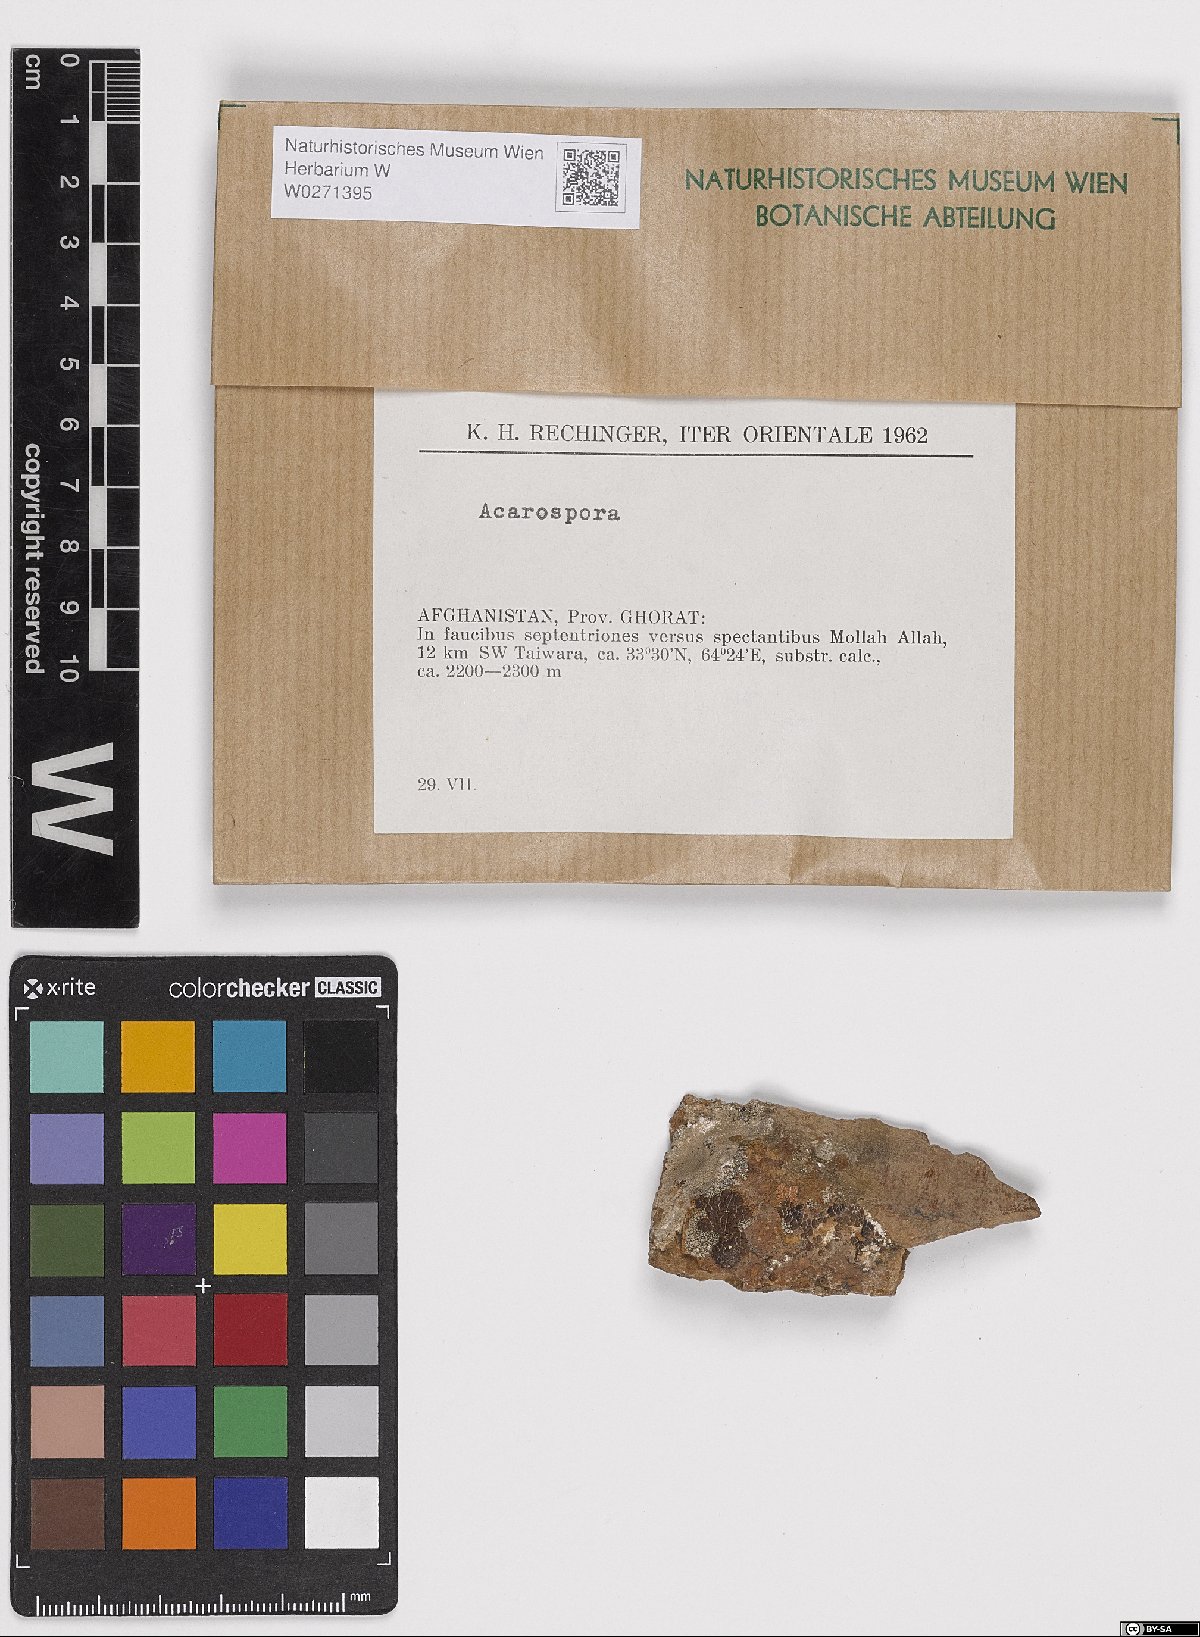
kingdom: Fungi
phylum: Ascomycota
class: Lecanoromycetes
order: Acarosporales
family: Acarosporaceae
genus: Acarospora
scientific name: Acarospora
